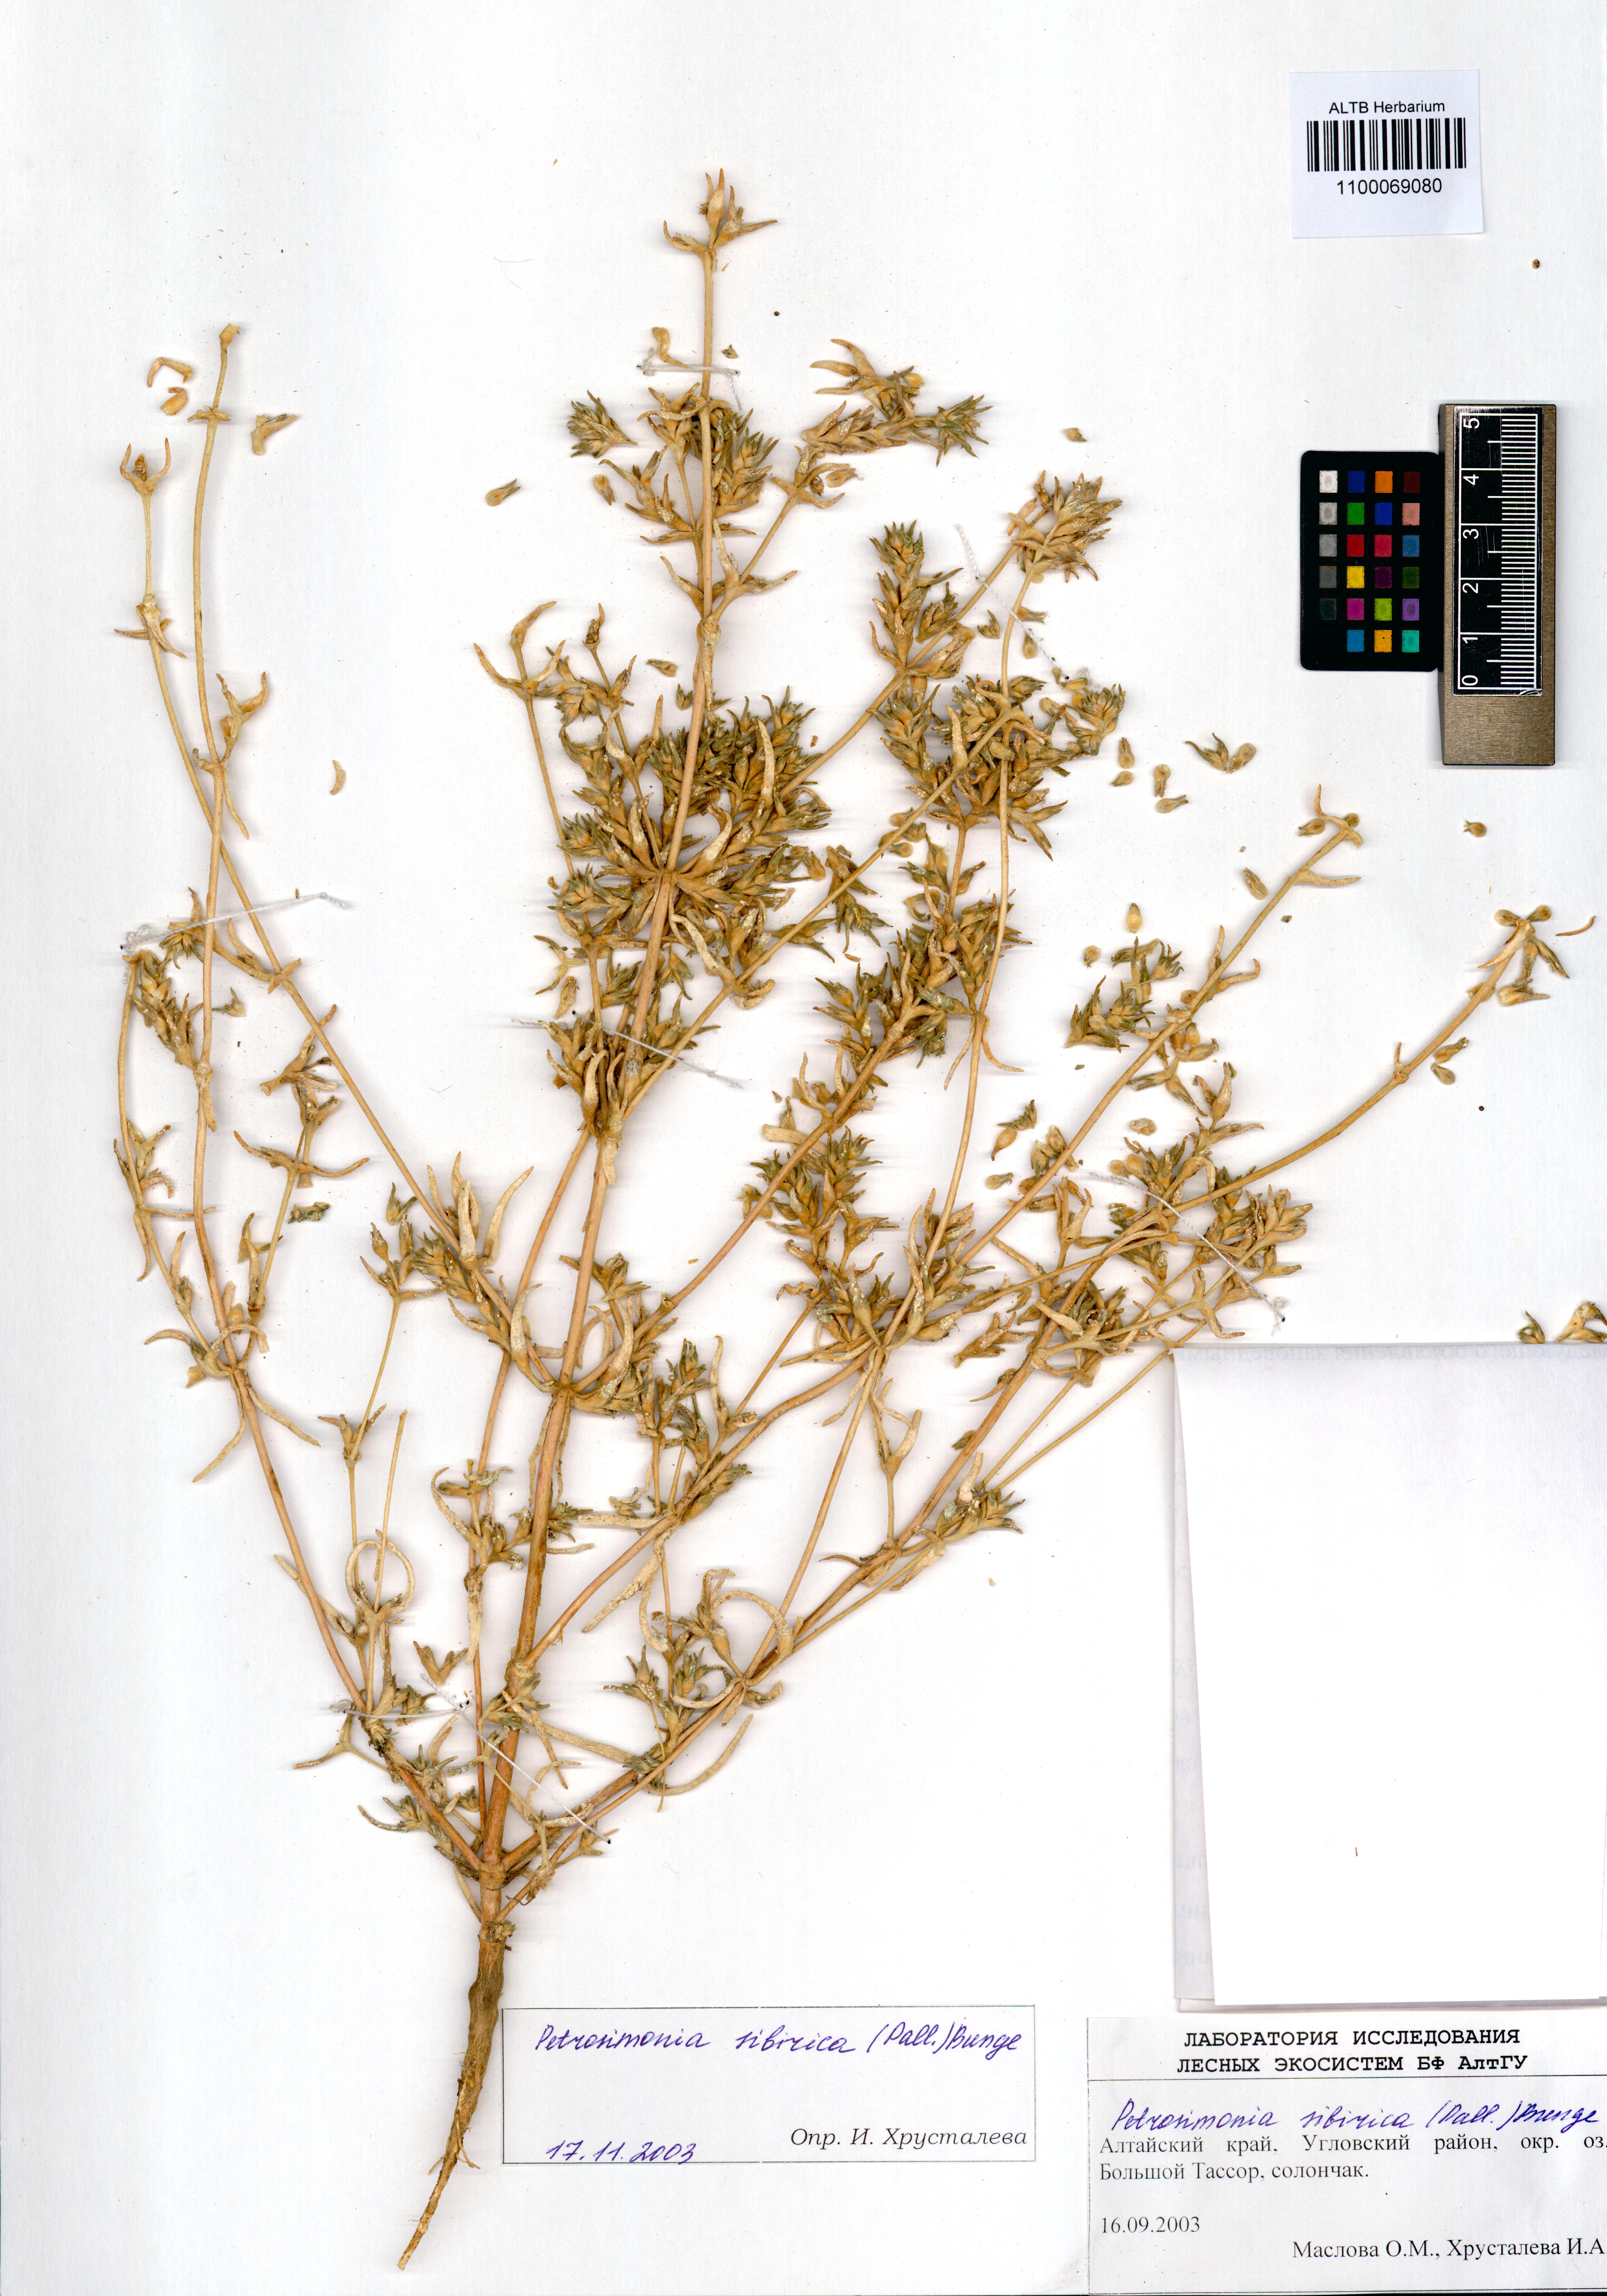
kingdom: Plantae
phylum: Tracheophyta
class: Magnoliopsida
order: Caryophyllales
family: Amaranthaceae
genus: Petrosimonia
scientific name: Petrosimonia sibirica
